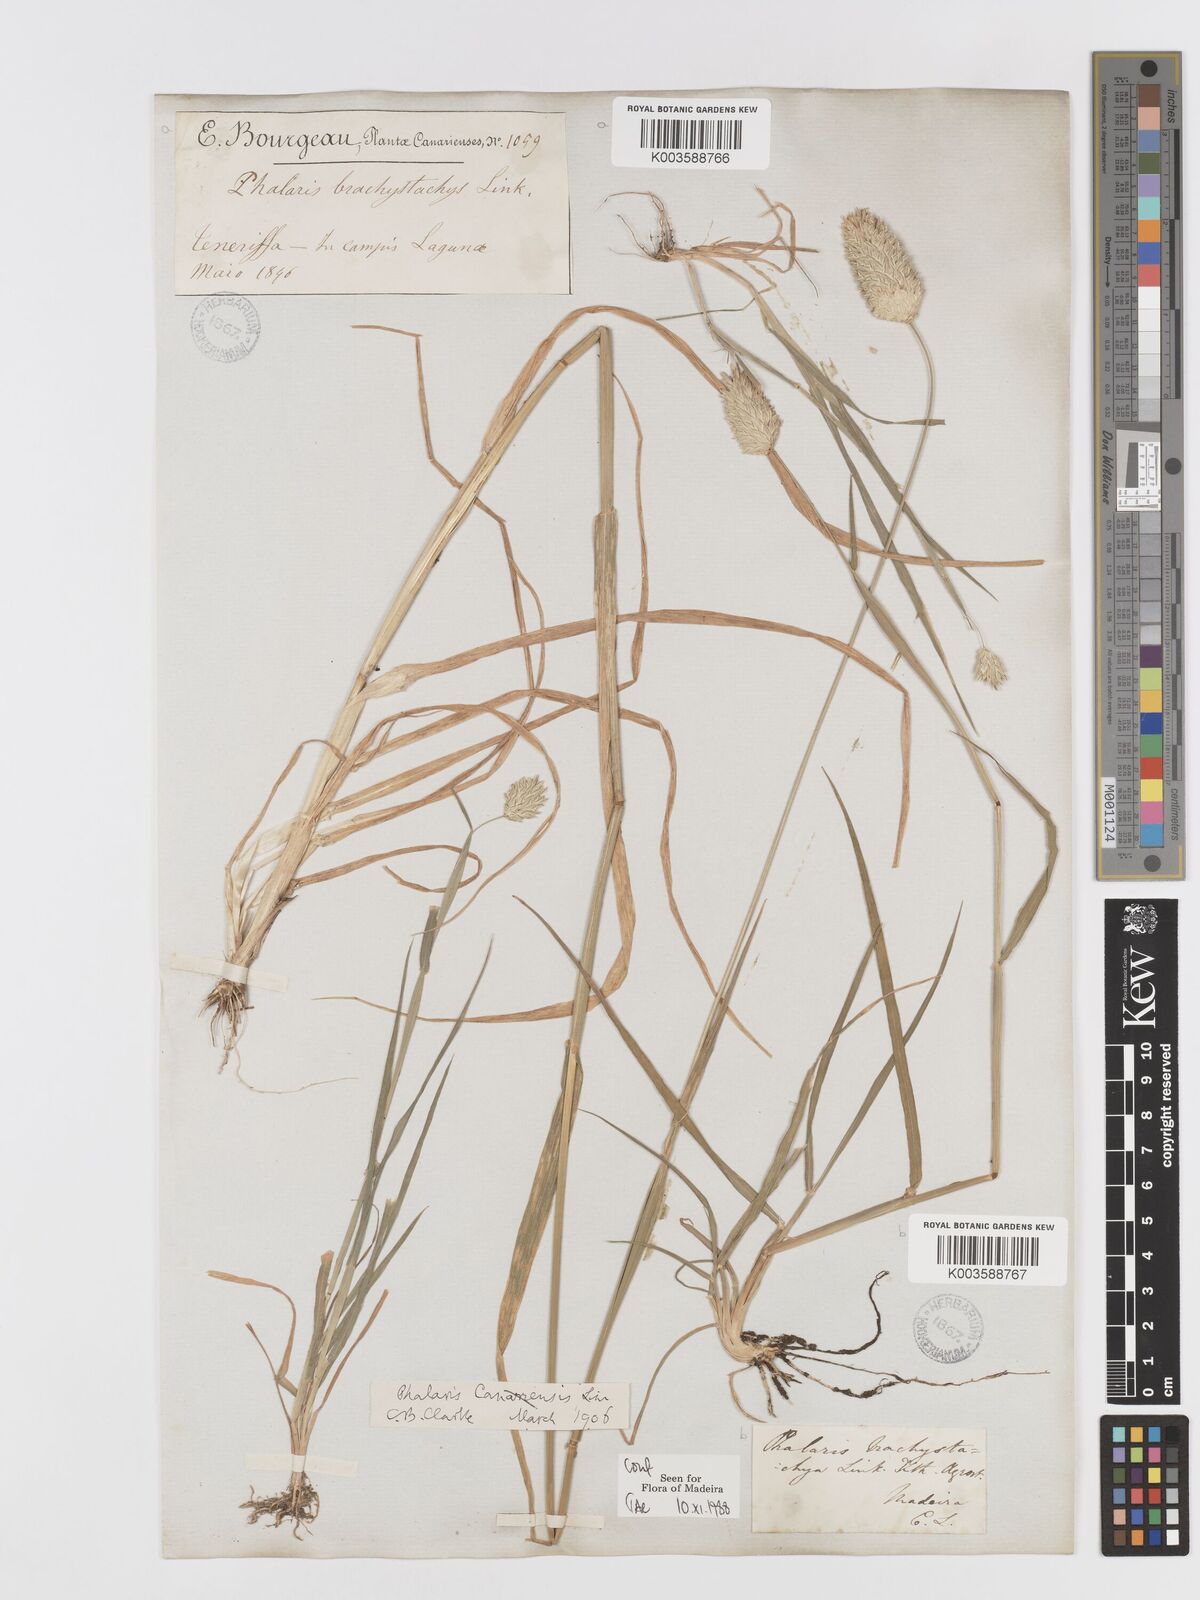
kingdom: Plantae
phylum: Tracheophyta
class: Liliopsida
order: Poales
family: Poaceae
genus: Phalaris
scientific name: Phalaris brachystachys
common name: Confused canary-grass
